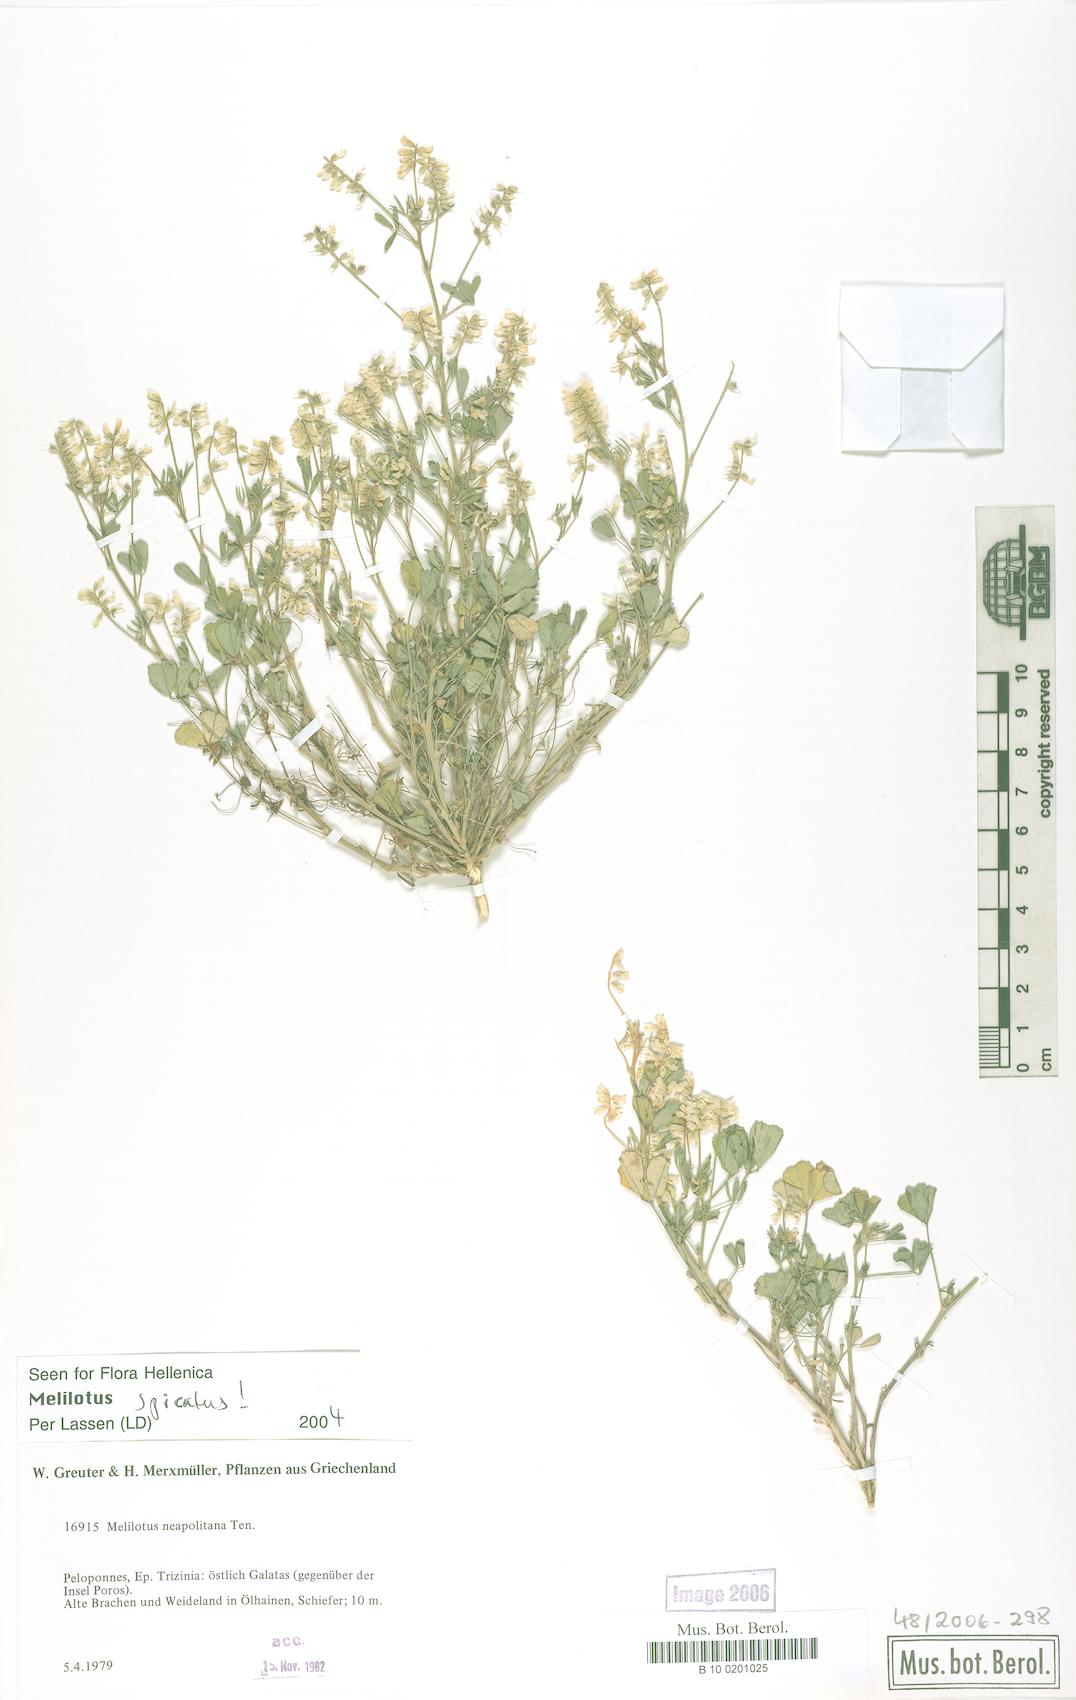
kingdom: Plantae
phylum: Tracheophyta
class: Magnoliopsida
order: Fabales
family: Fabaceae
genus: Melilotus
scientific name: Melilotus neapolitanus
